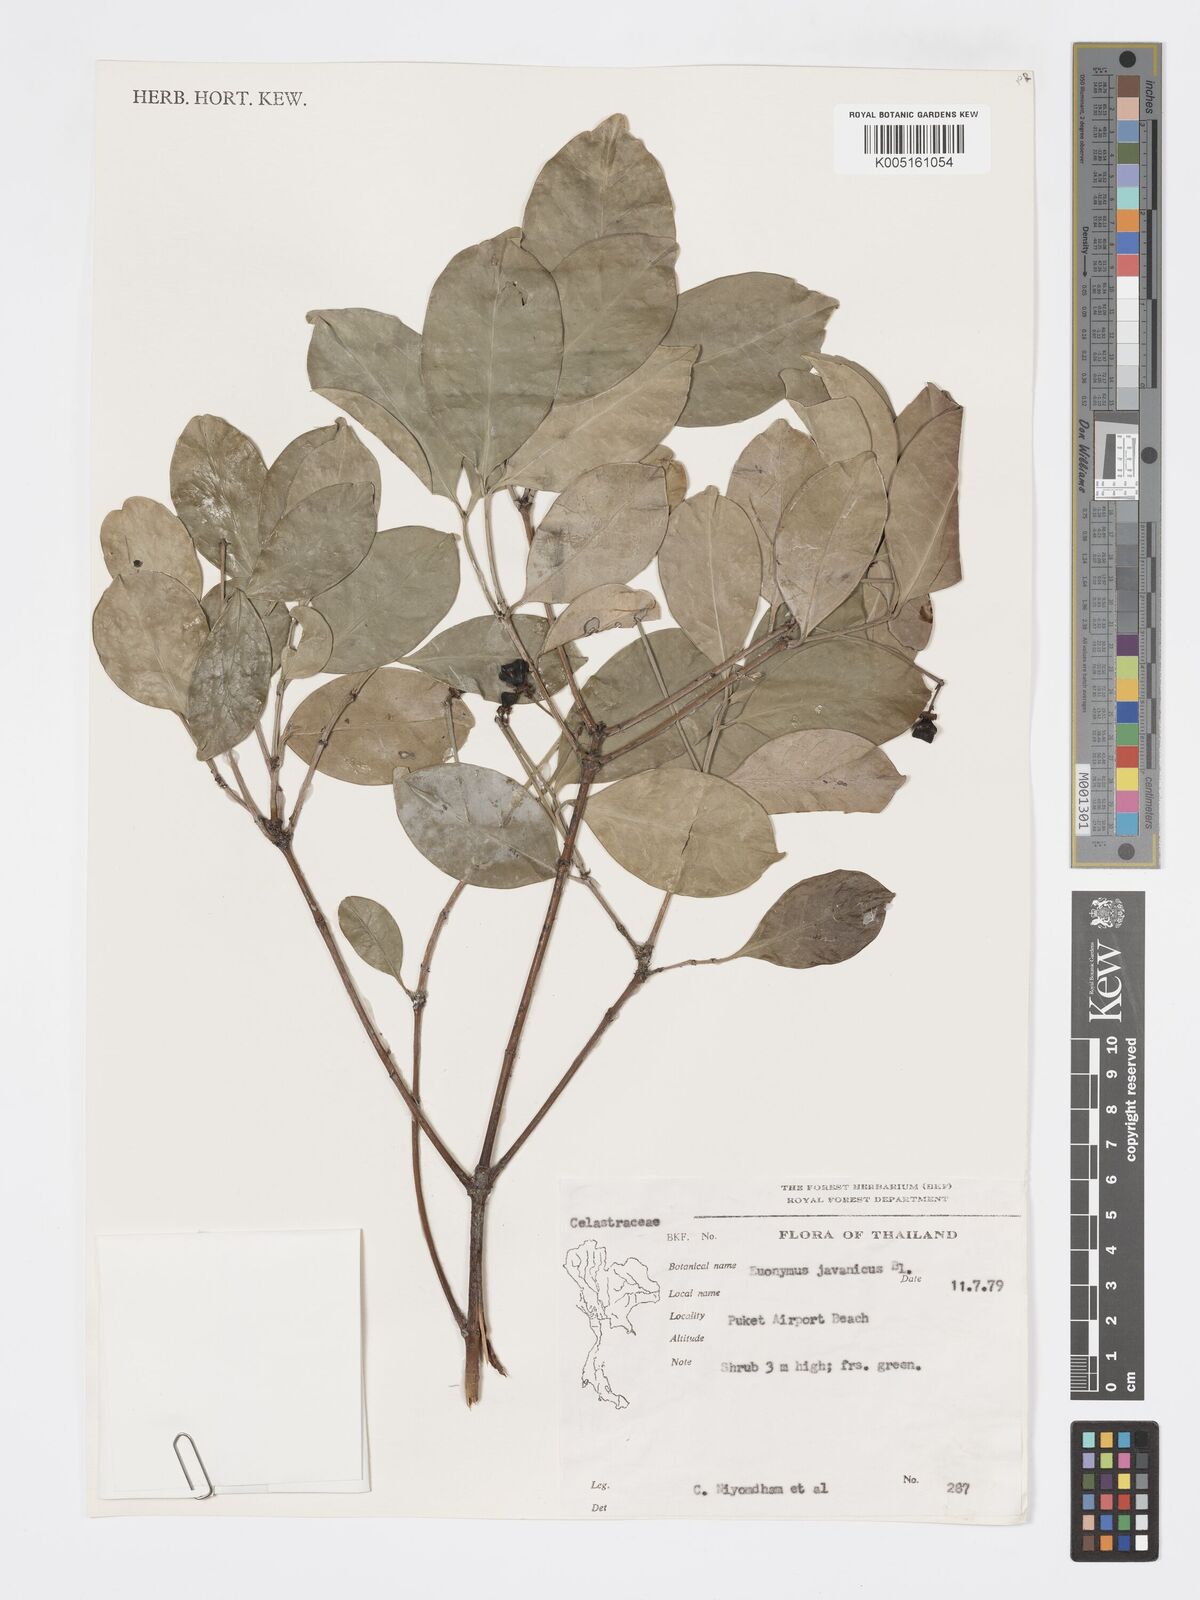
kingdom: Plantae
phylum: Tracheophyta
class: Magnoliopsida
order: Celastrales
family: Celastraceae
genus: Euonymus
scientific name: Euonymus indicus
